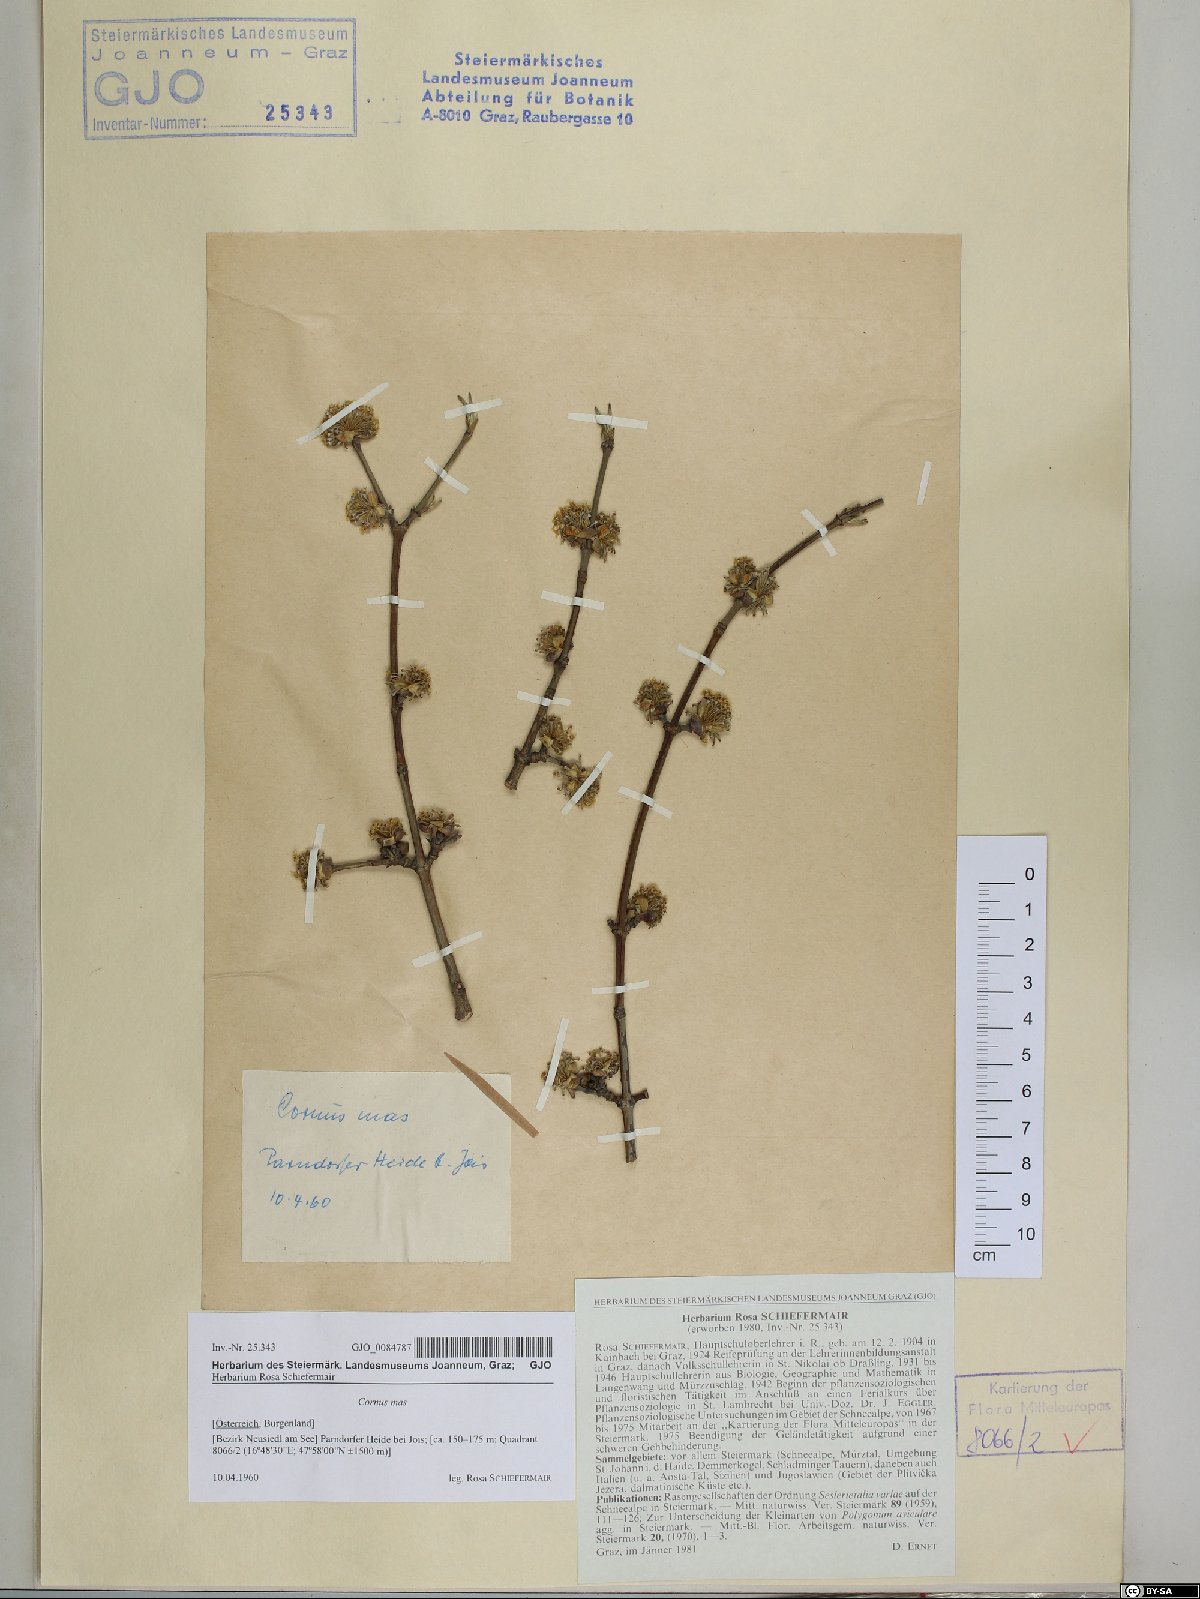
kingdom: Plantae
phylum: Tracheophyta
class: Magnoliopsida
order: Cornales
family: Cornaceae
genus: Cornus
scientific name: Cornus mas
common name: Cornelian-cherry
